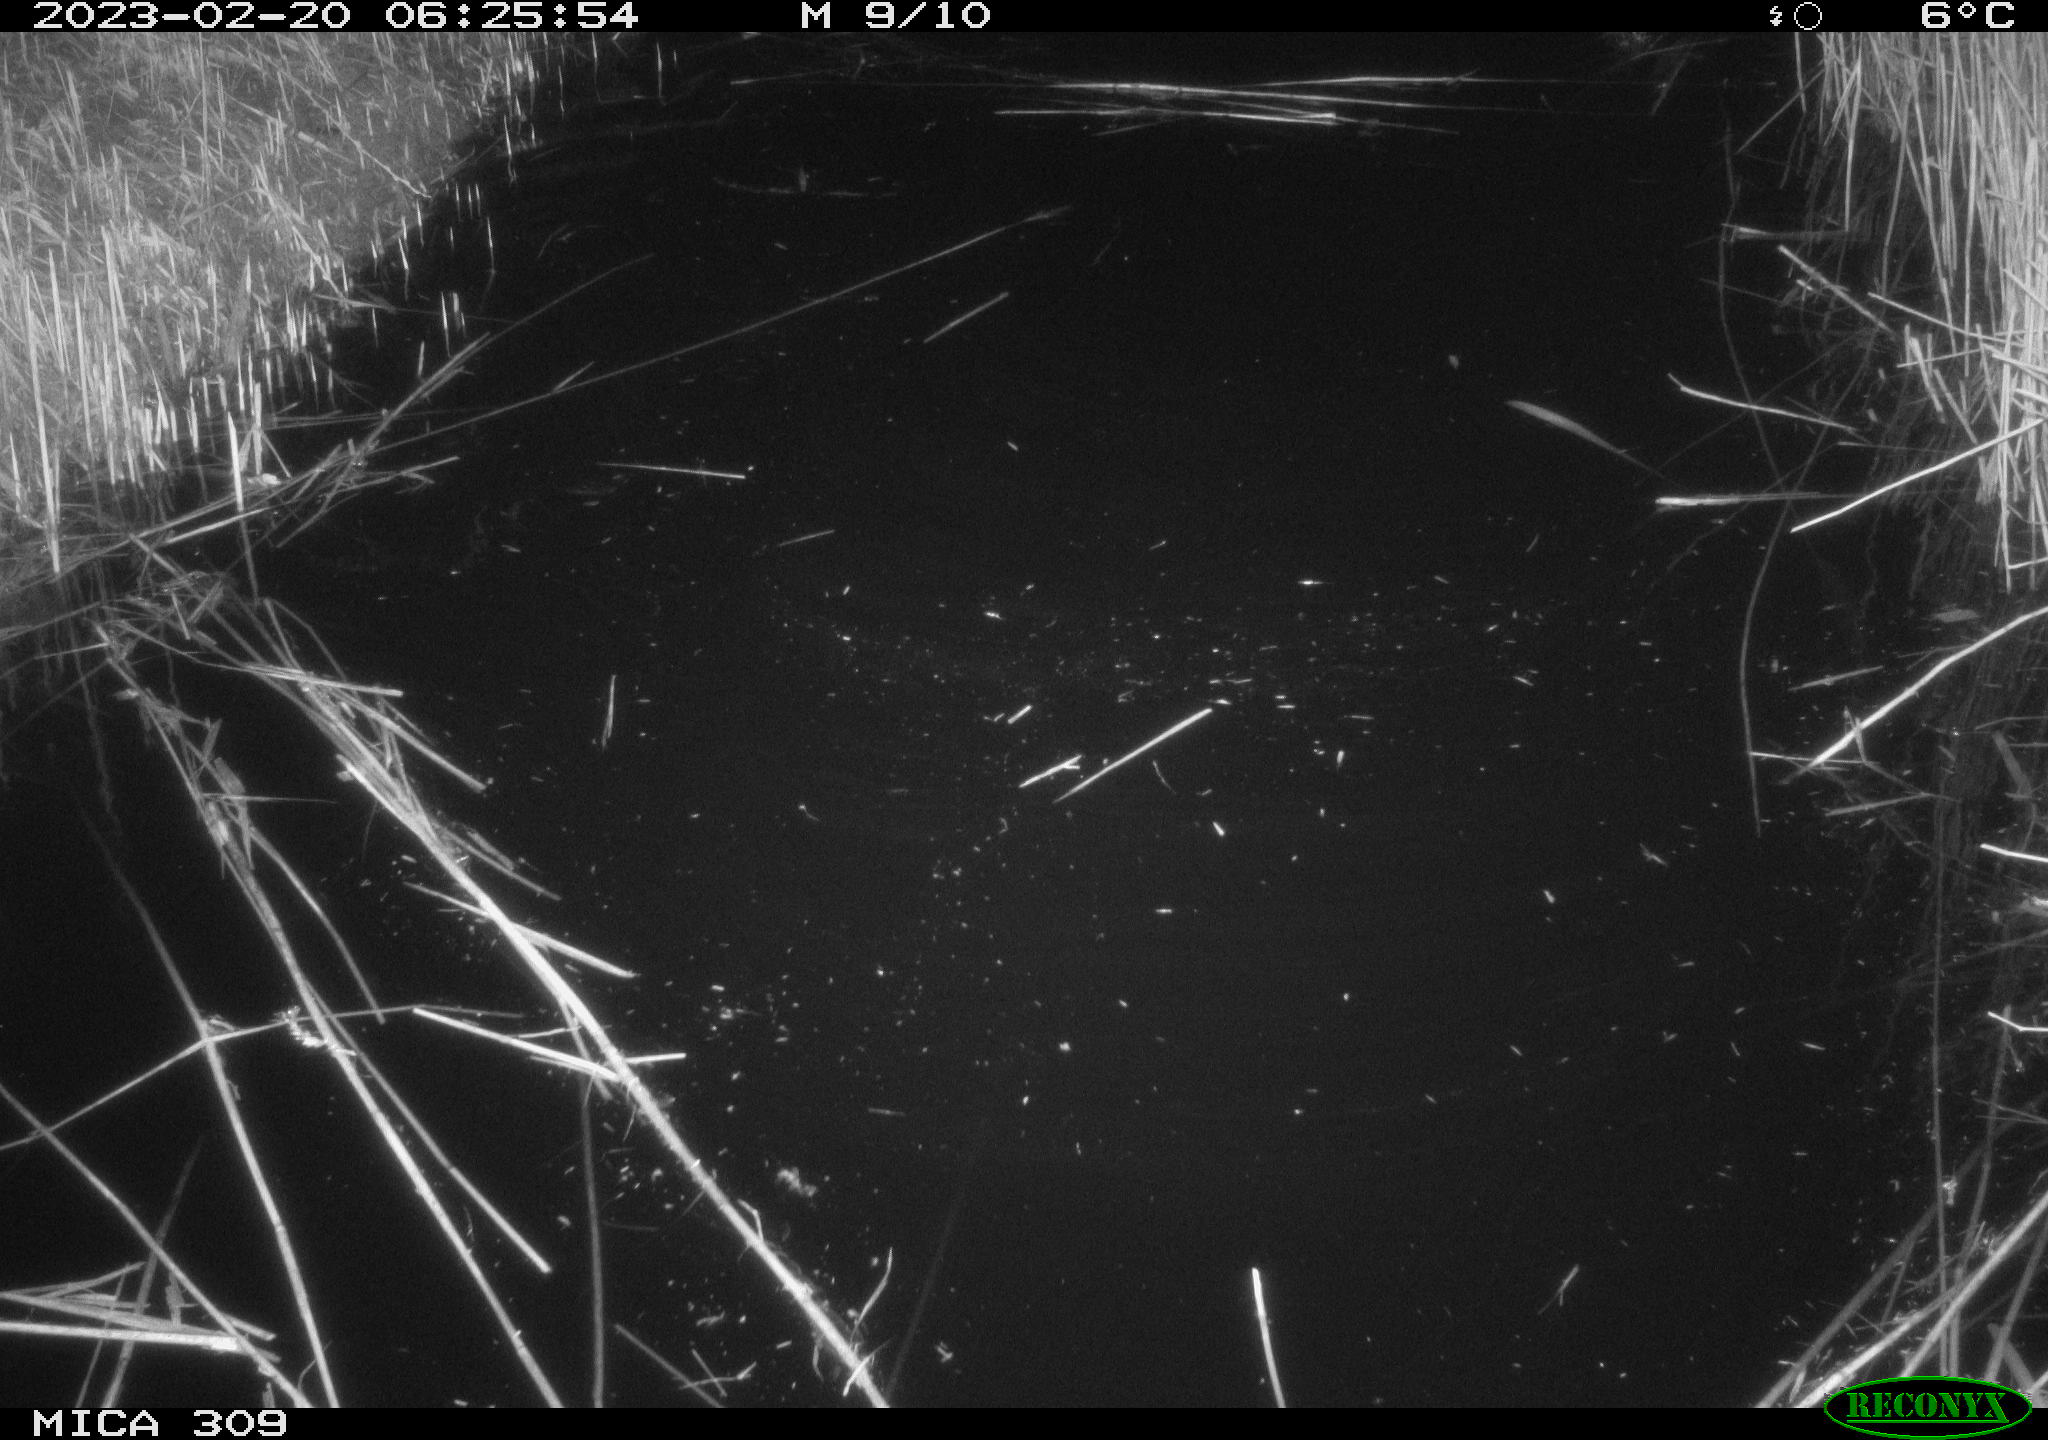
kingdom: Animalia
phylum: Chordata
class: Aves
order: Gruiformes
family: Rallidae
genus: Fulica
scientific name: Fulica atra
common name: Eurasian coot
